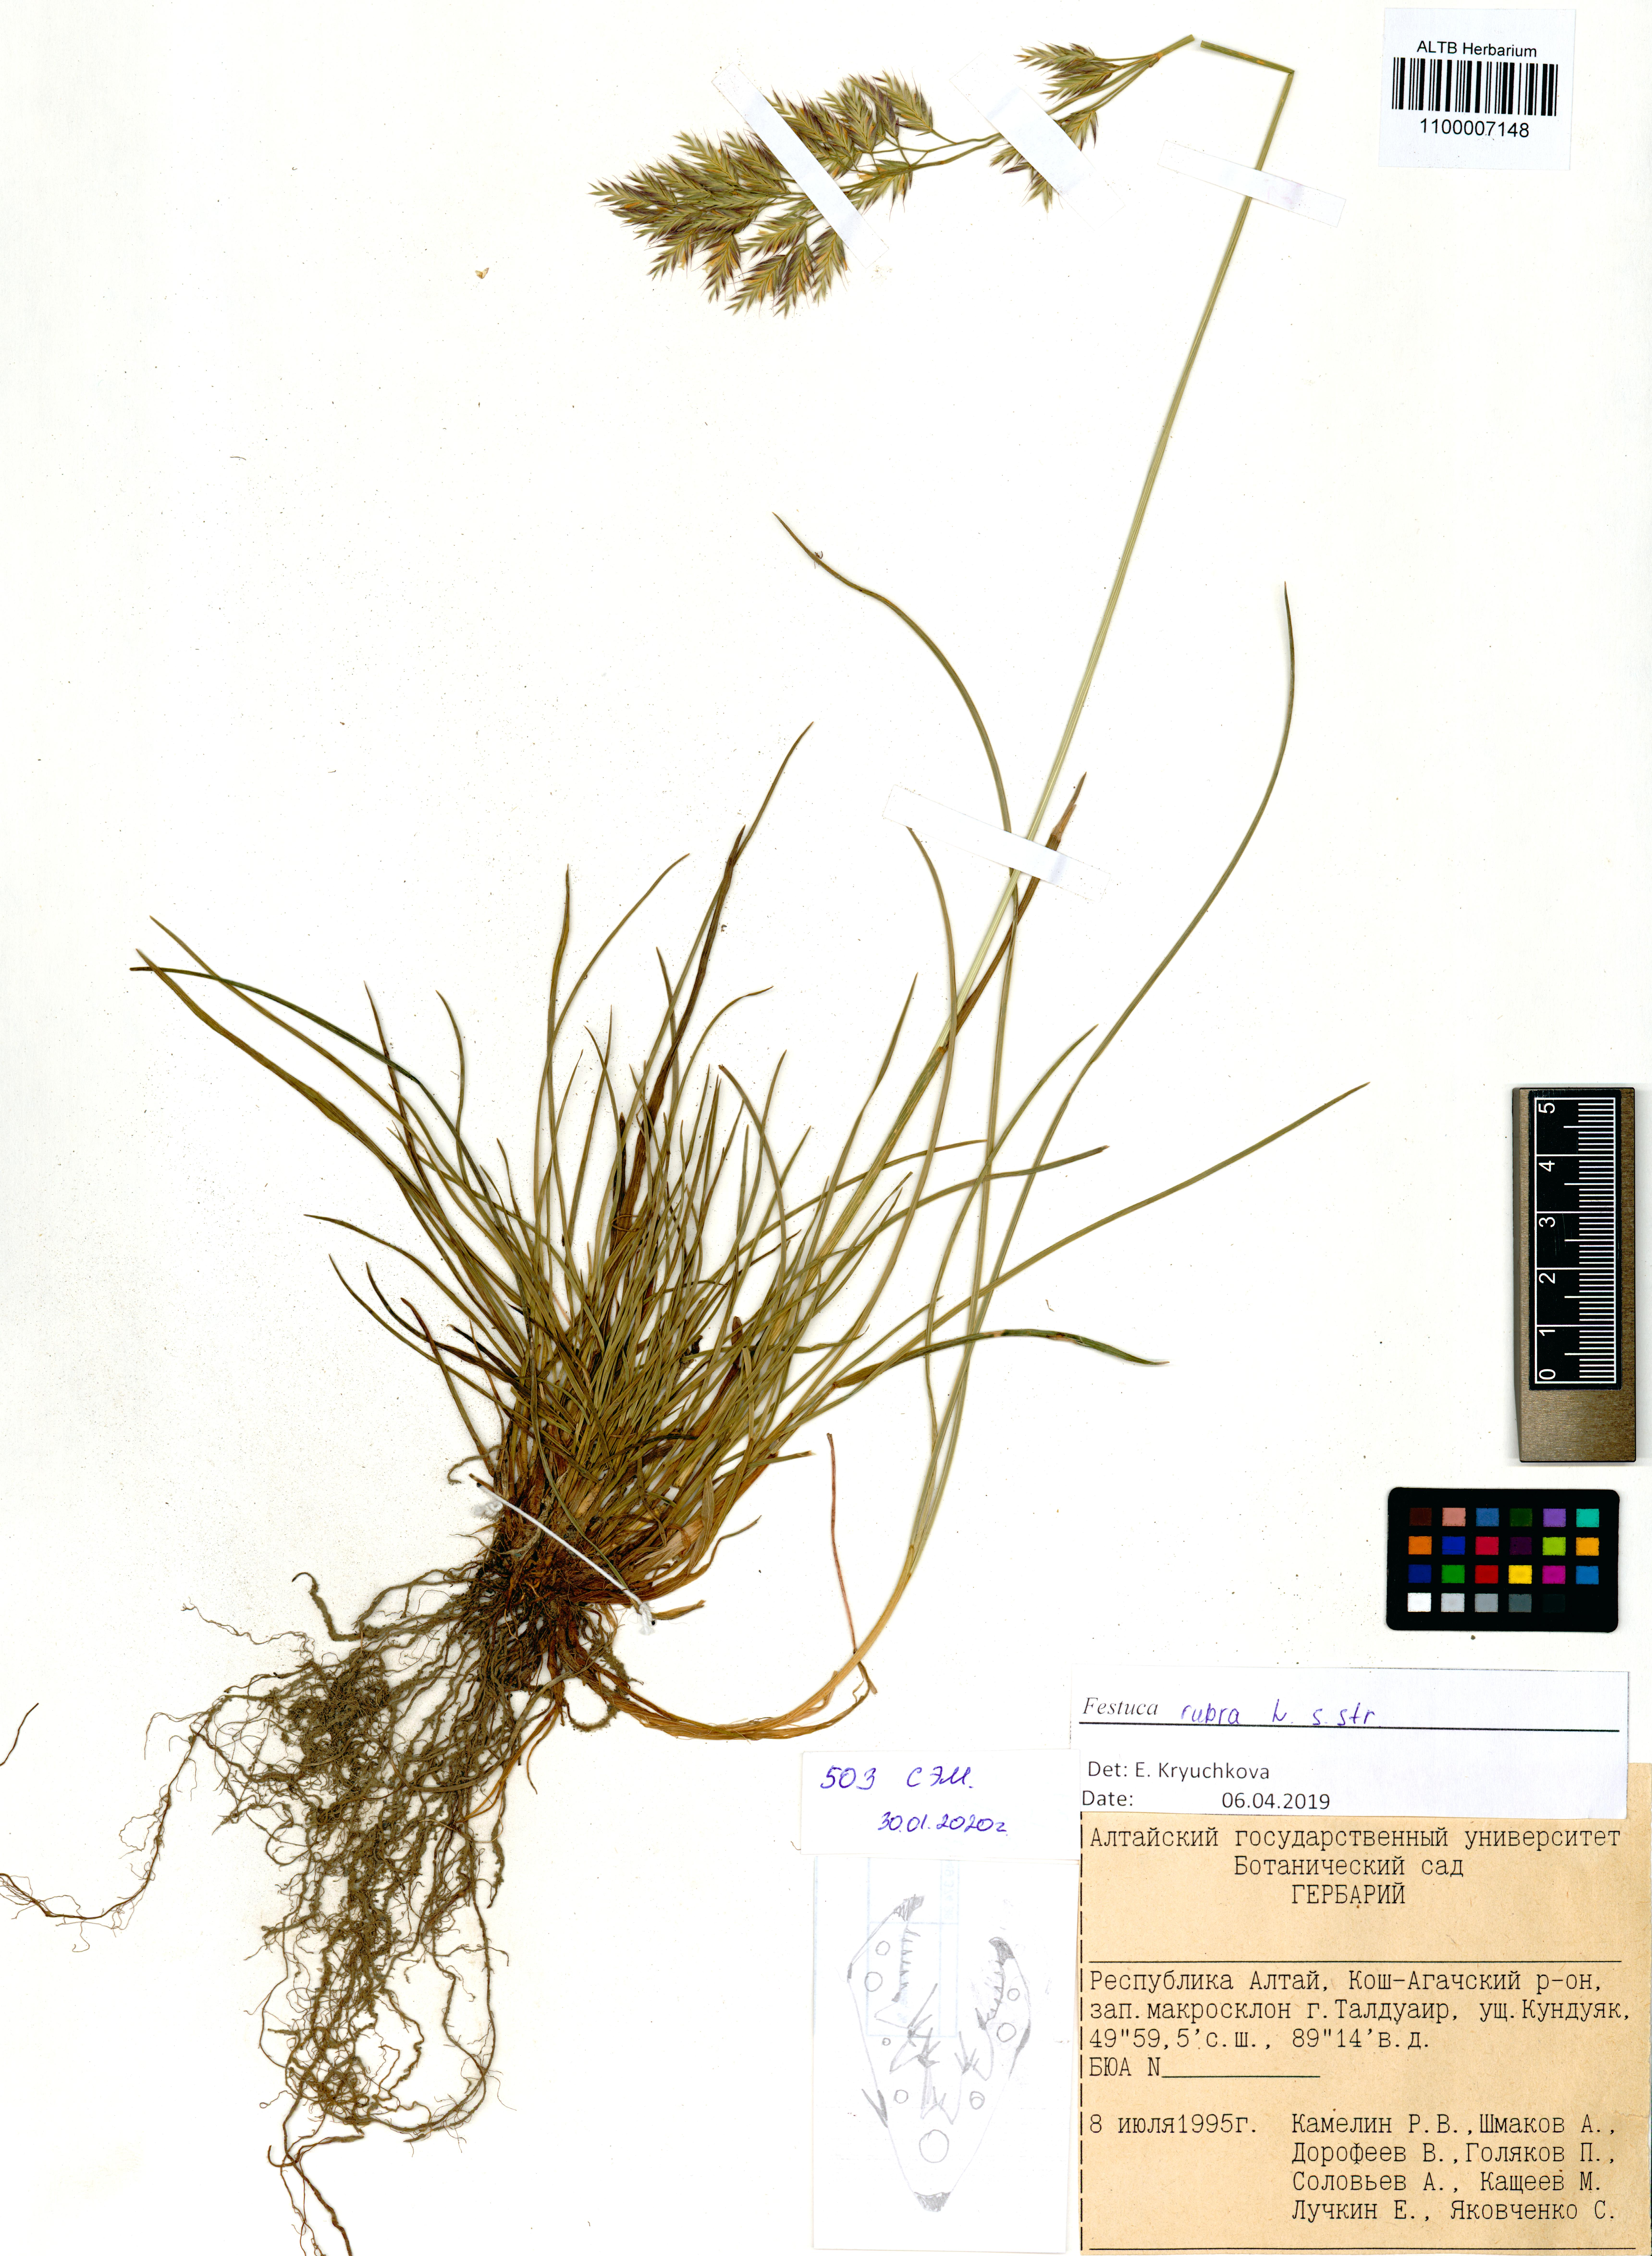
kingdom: Plantae
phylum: Tracheophyta
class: Liliopsida
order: Poales
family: Poaceae
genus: Festuca
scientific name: Festuca rubra
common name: Red fescue
